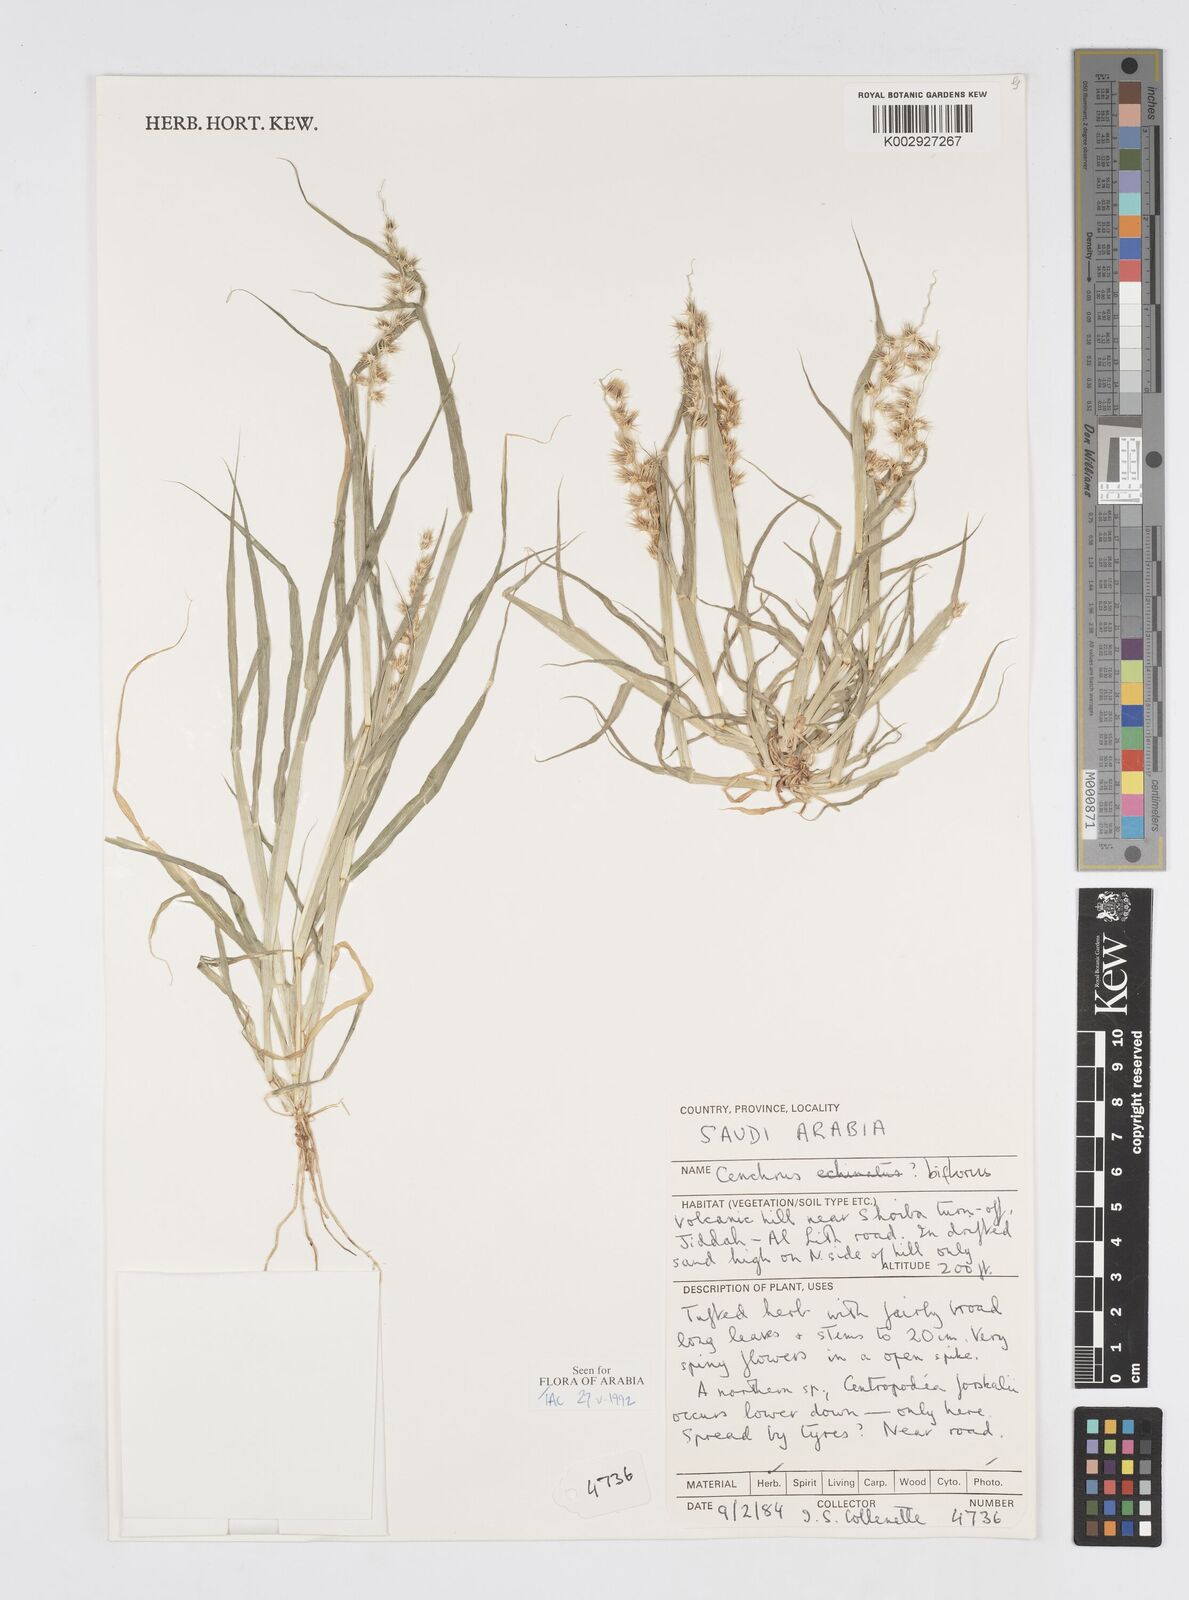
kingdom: Plantae
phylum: Tracheophyta
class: Liliopsida
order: Poales
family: Poaceae
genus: Cenchrus
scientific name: Cenchrus biflorus
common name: Indian sandbur
